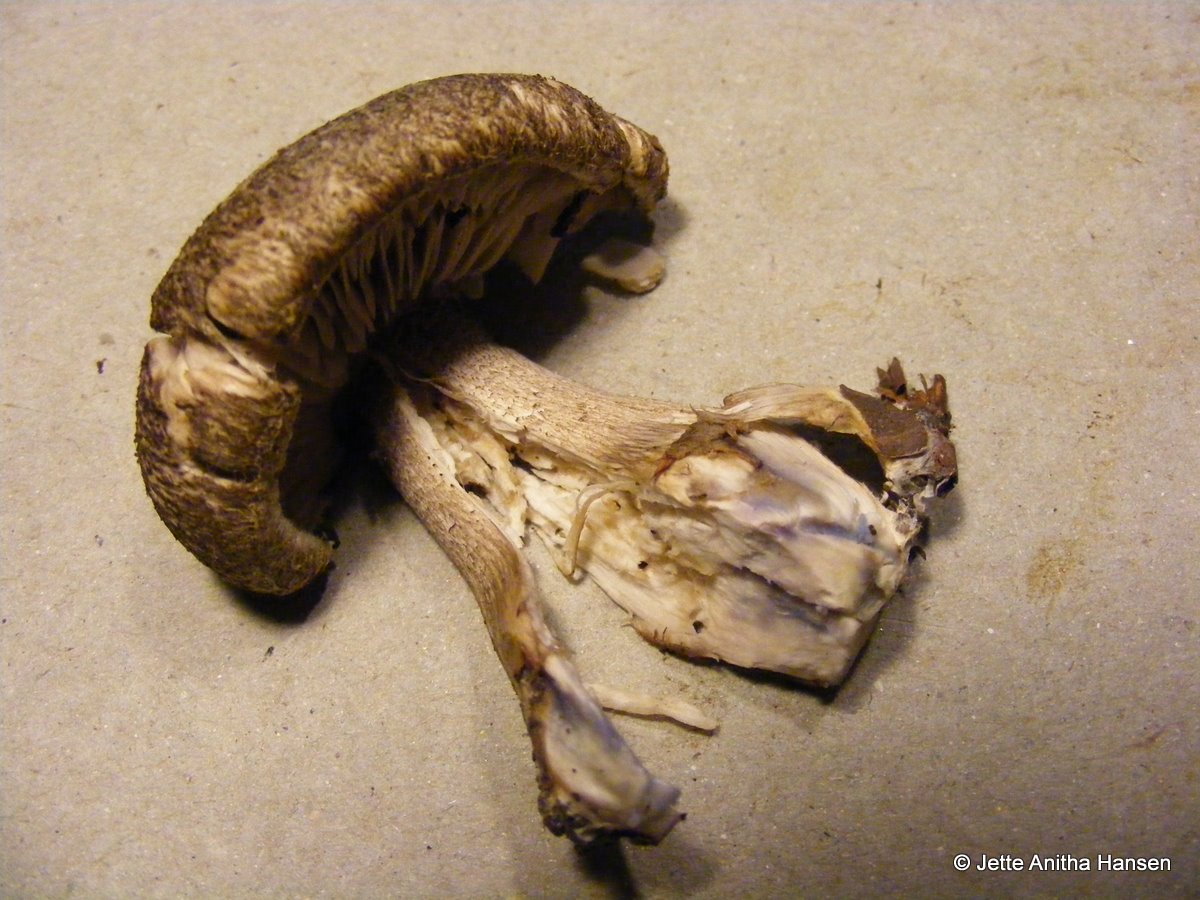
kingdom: Fungi
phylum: Basidiomycota
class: Agaricomycetes
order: Agaricales
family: Tricholomataceae
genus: Tricholoma
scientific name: Tricholoma atrosquamosum
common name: sortskællet ridderhat
